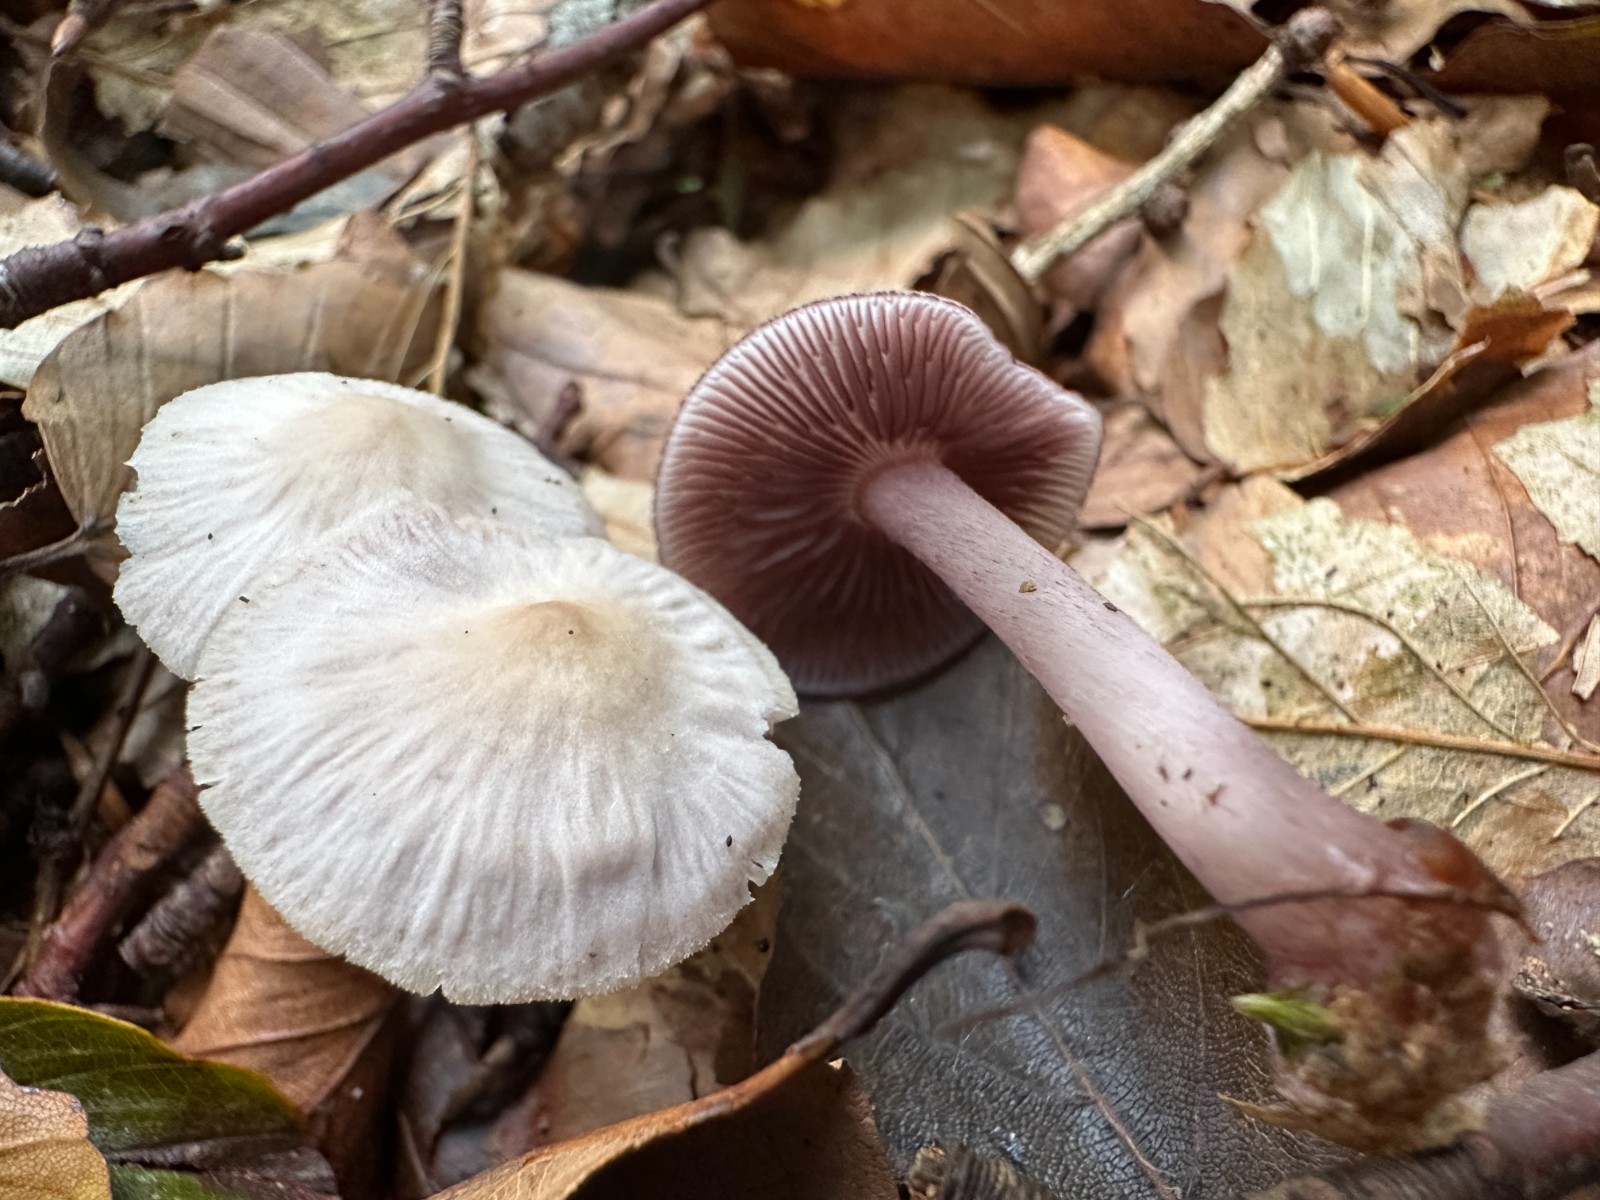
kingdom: Fungi
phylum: Basidiomycota
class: Agaricomycetes
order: Agaricales
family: Mycenaceae
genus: Mycena
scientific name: Mycena pelianthina
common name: mørkbladet huesvamp
